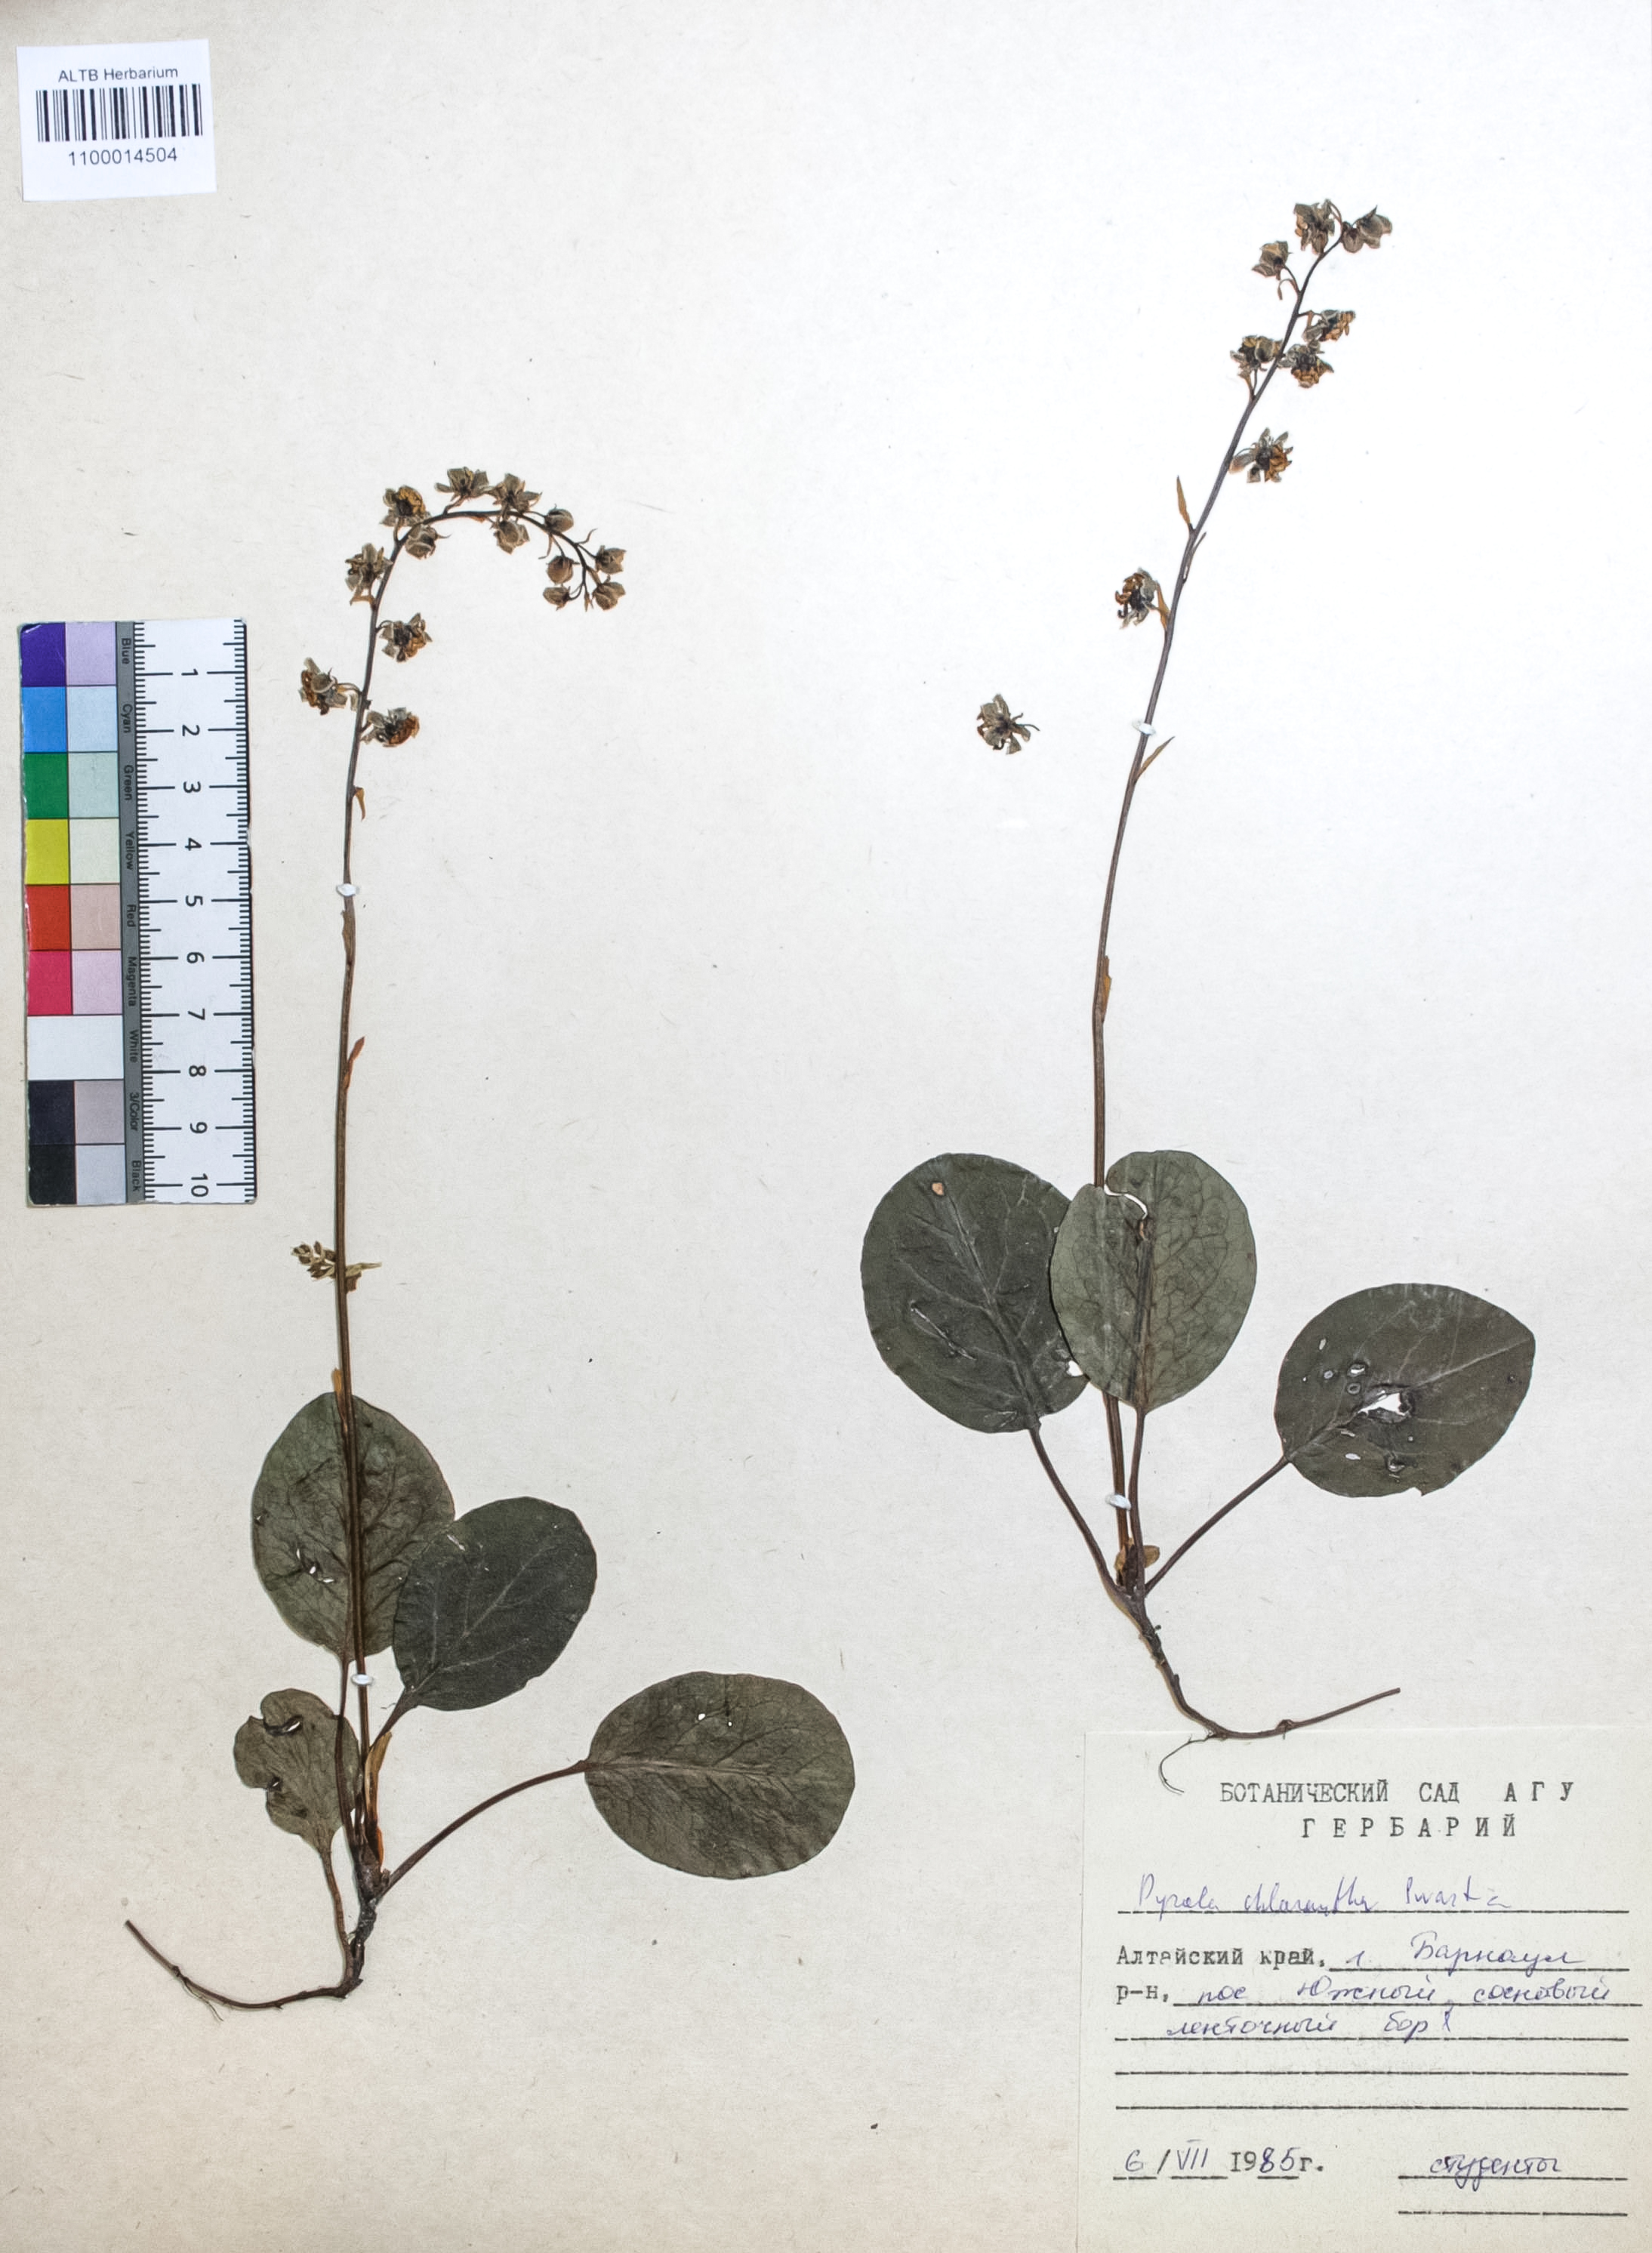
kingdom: Plantae
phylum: Tracheophyta
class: Magnoliopsida
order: Ericales
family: Ericaceae
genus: Pyrola
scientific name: Pyrola chlorantha
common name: Green wintergreen
